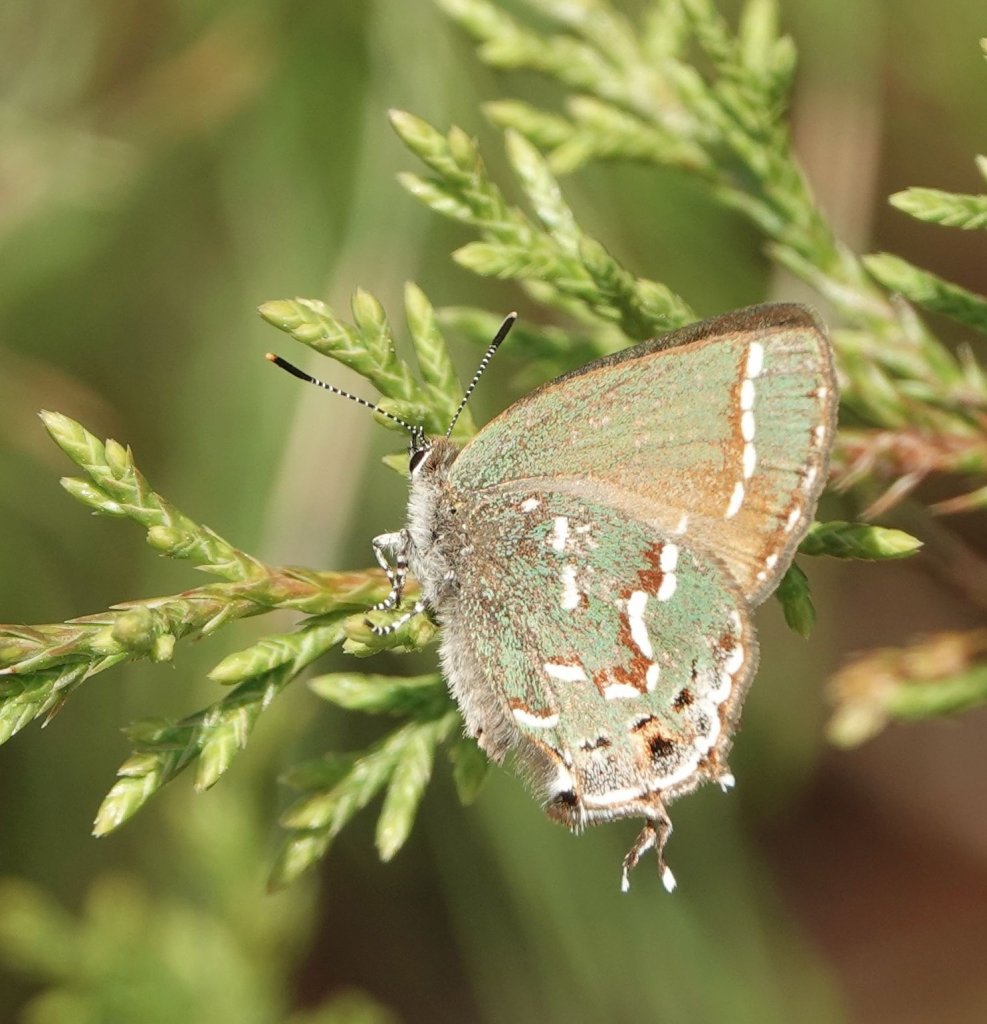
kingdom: Animalia
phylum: Arthropoda
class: Insecta
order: Lepidoptera
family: Lycaenidae
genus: Mitoura
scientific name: Mitoura gryneus
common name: Juniper Hairstreak
